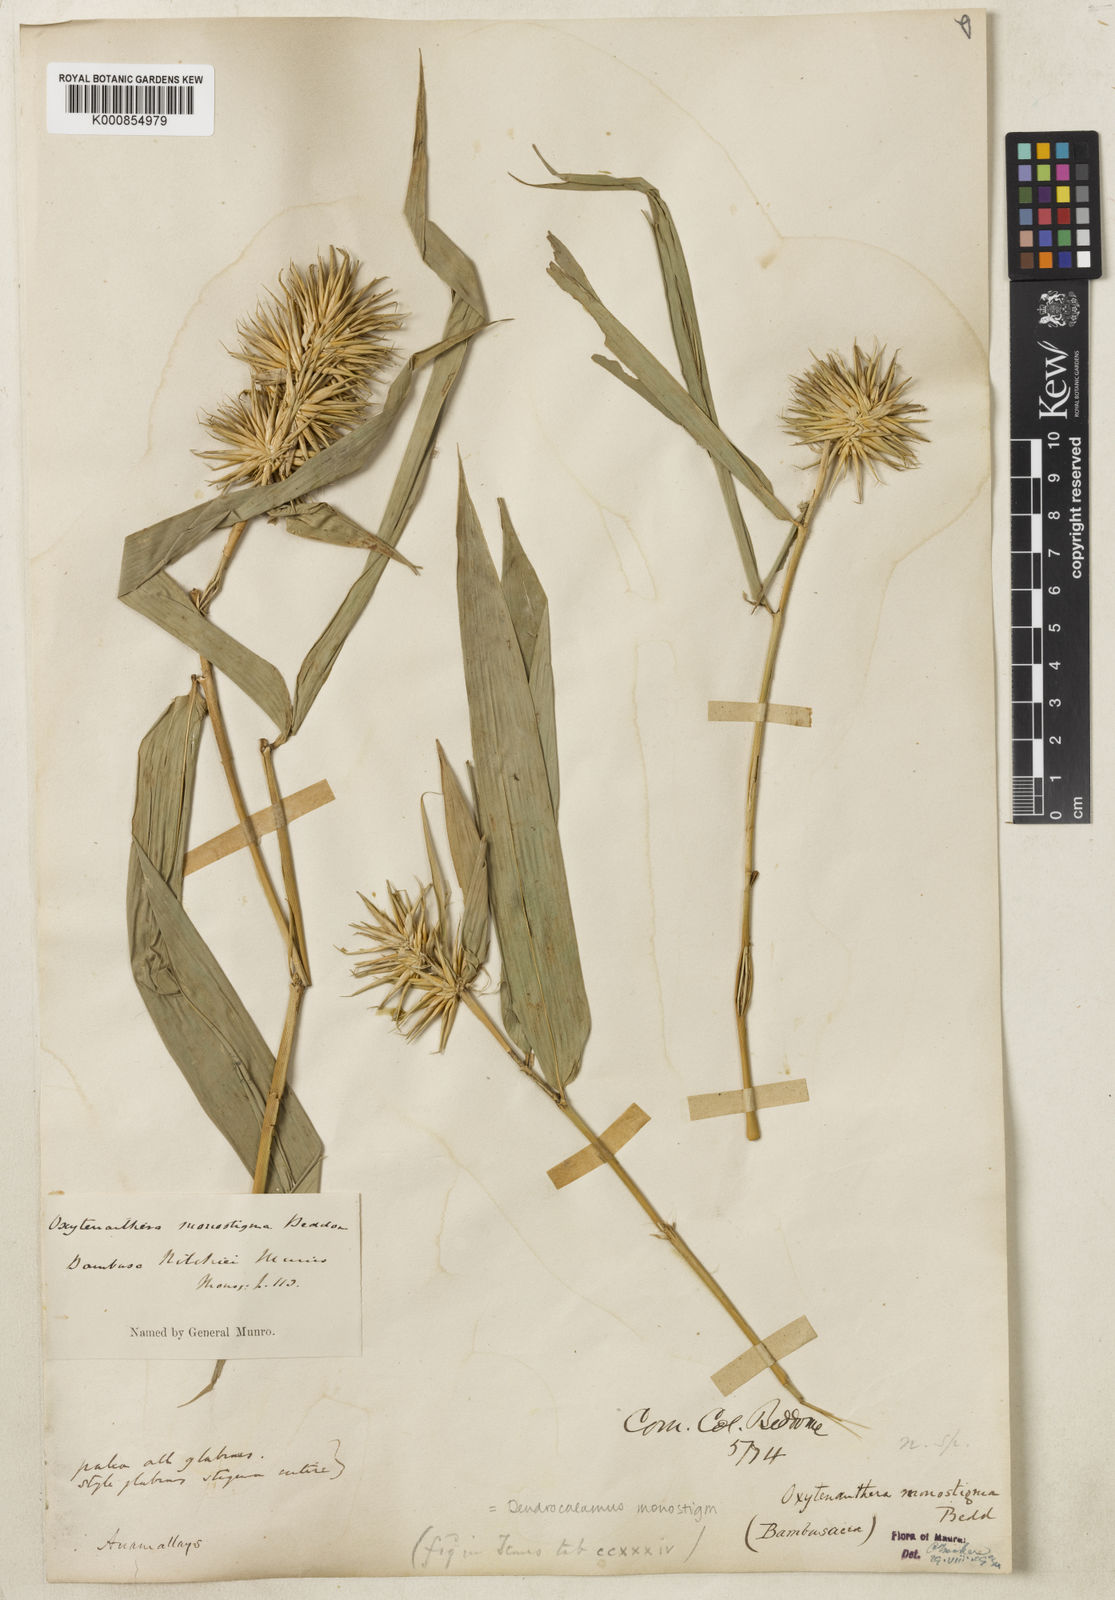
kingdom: Plantae
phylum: Tracheophyta
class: Liliopsida
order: Poales
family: Poaceae
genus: Dendrocalamus
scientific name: Dendrocalamus
